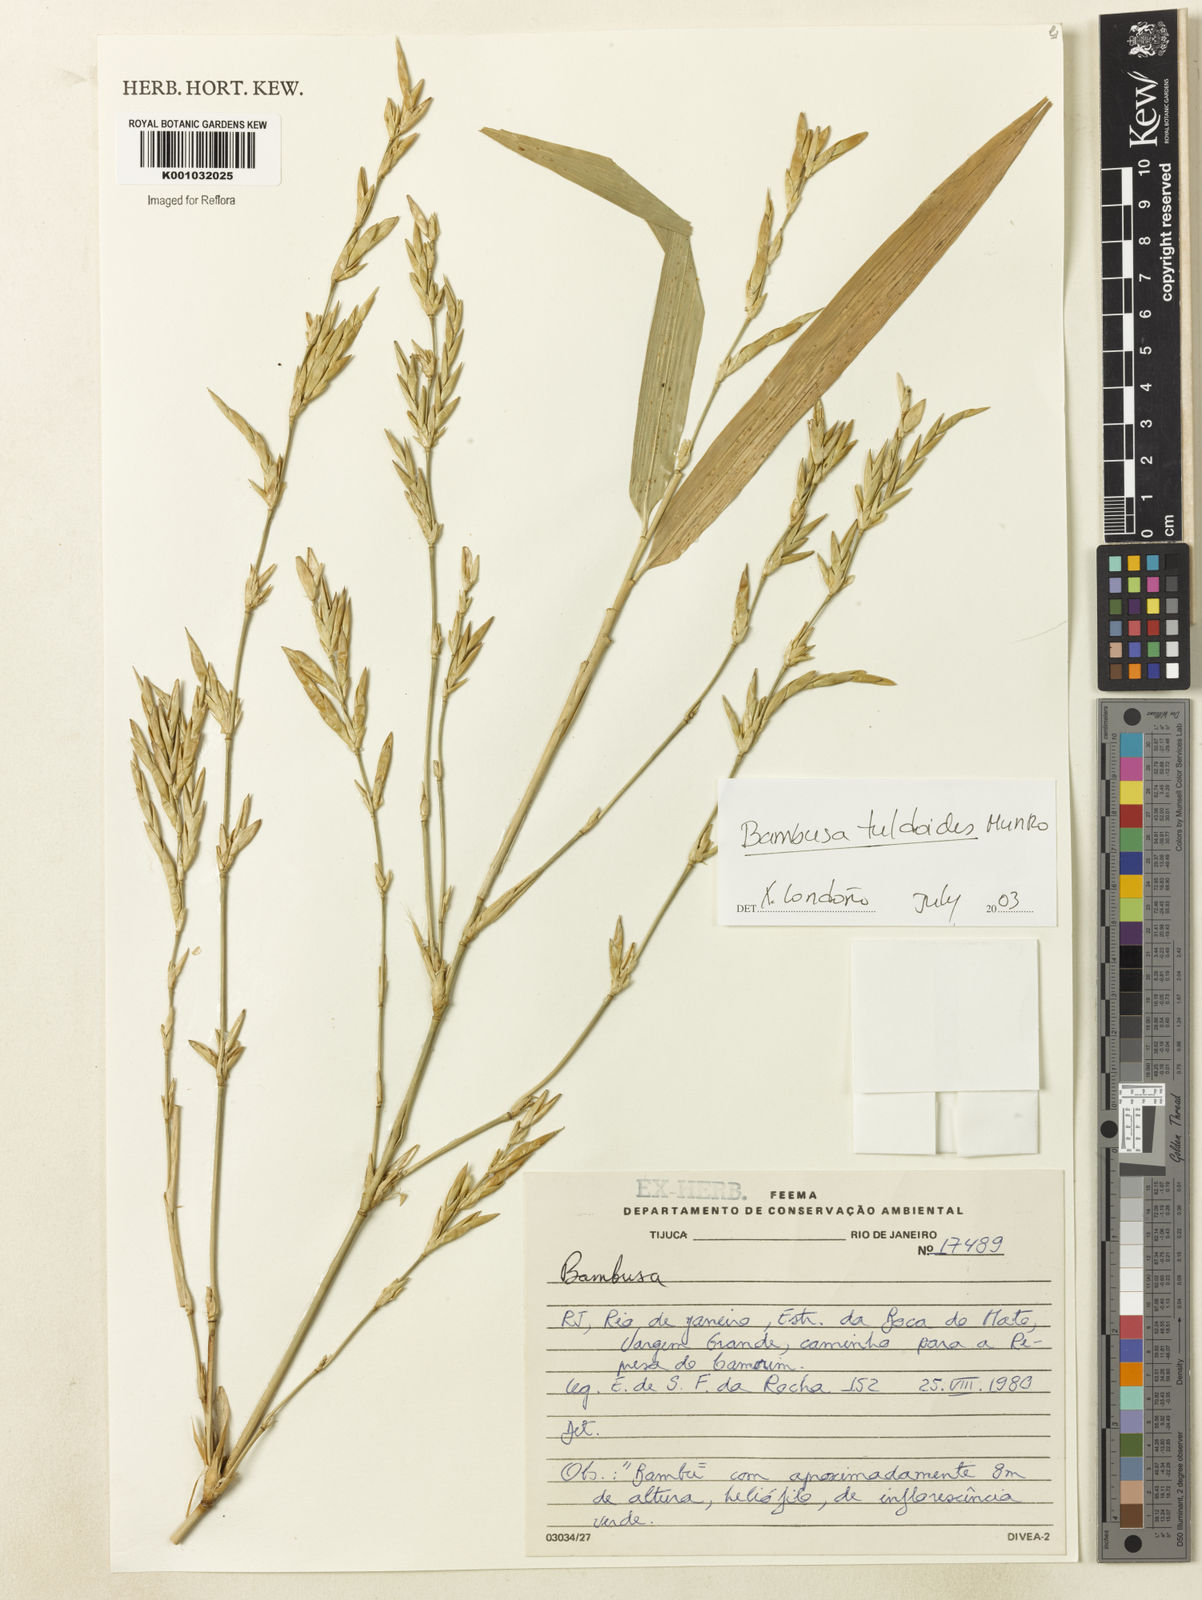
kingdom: Plantae
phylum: Tracheophyta
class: Liliopsida
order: Poales
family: Poaceae
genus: Bambusa
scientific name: Bambusa tuldoides
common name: Verdant bamboo
